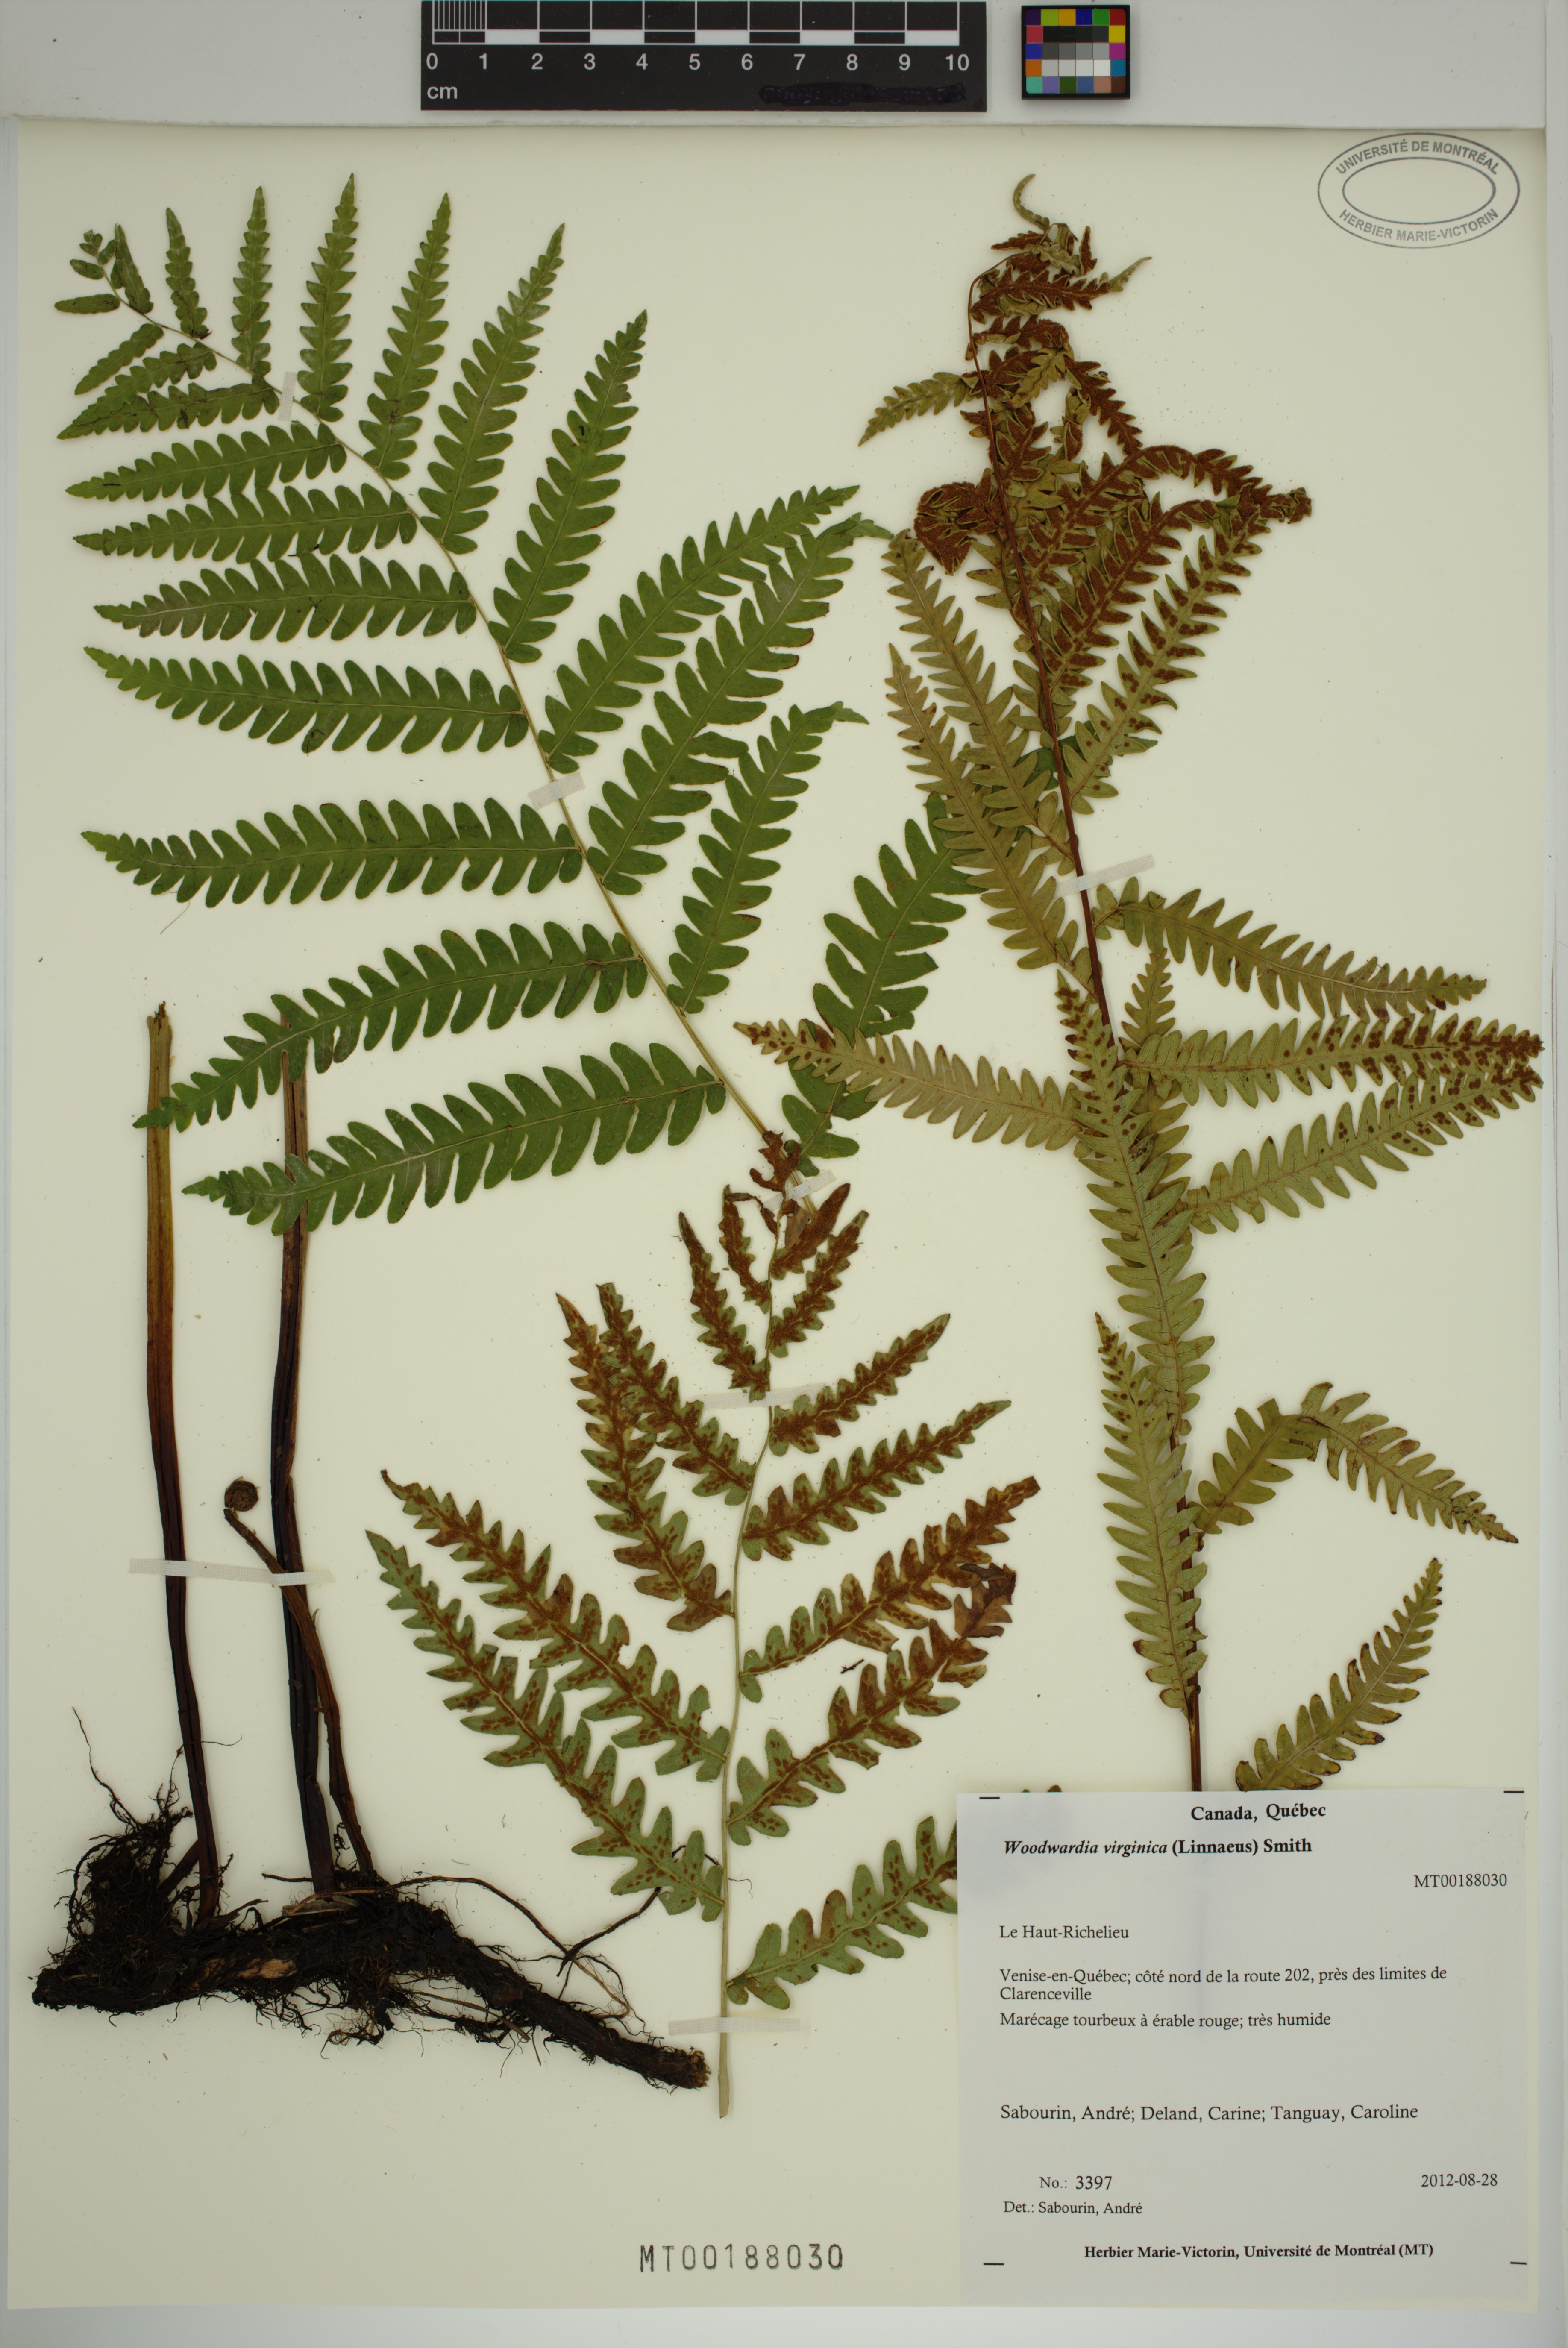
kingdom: Plantae
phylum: Tracheophyta
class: Polypodiopsida
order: Polypodiales
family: Blechnaceae
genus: Anchistea
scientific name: Anchistea virginica
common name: Virginia chain fern
